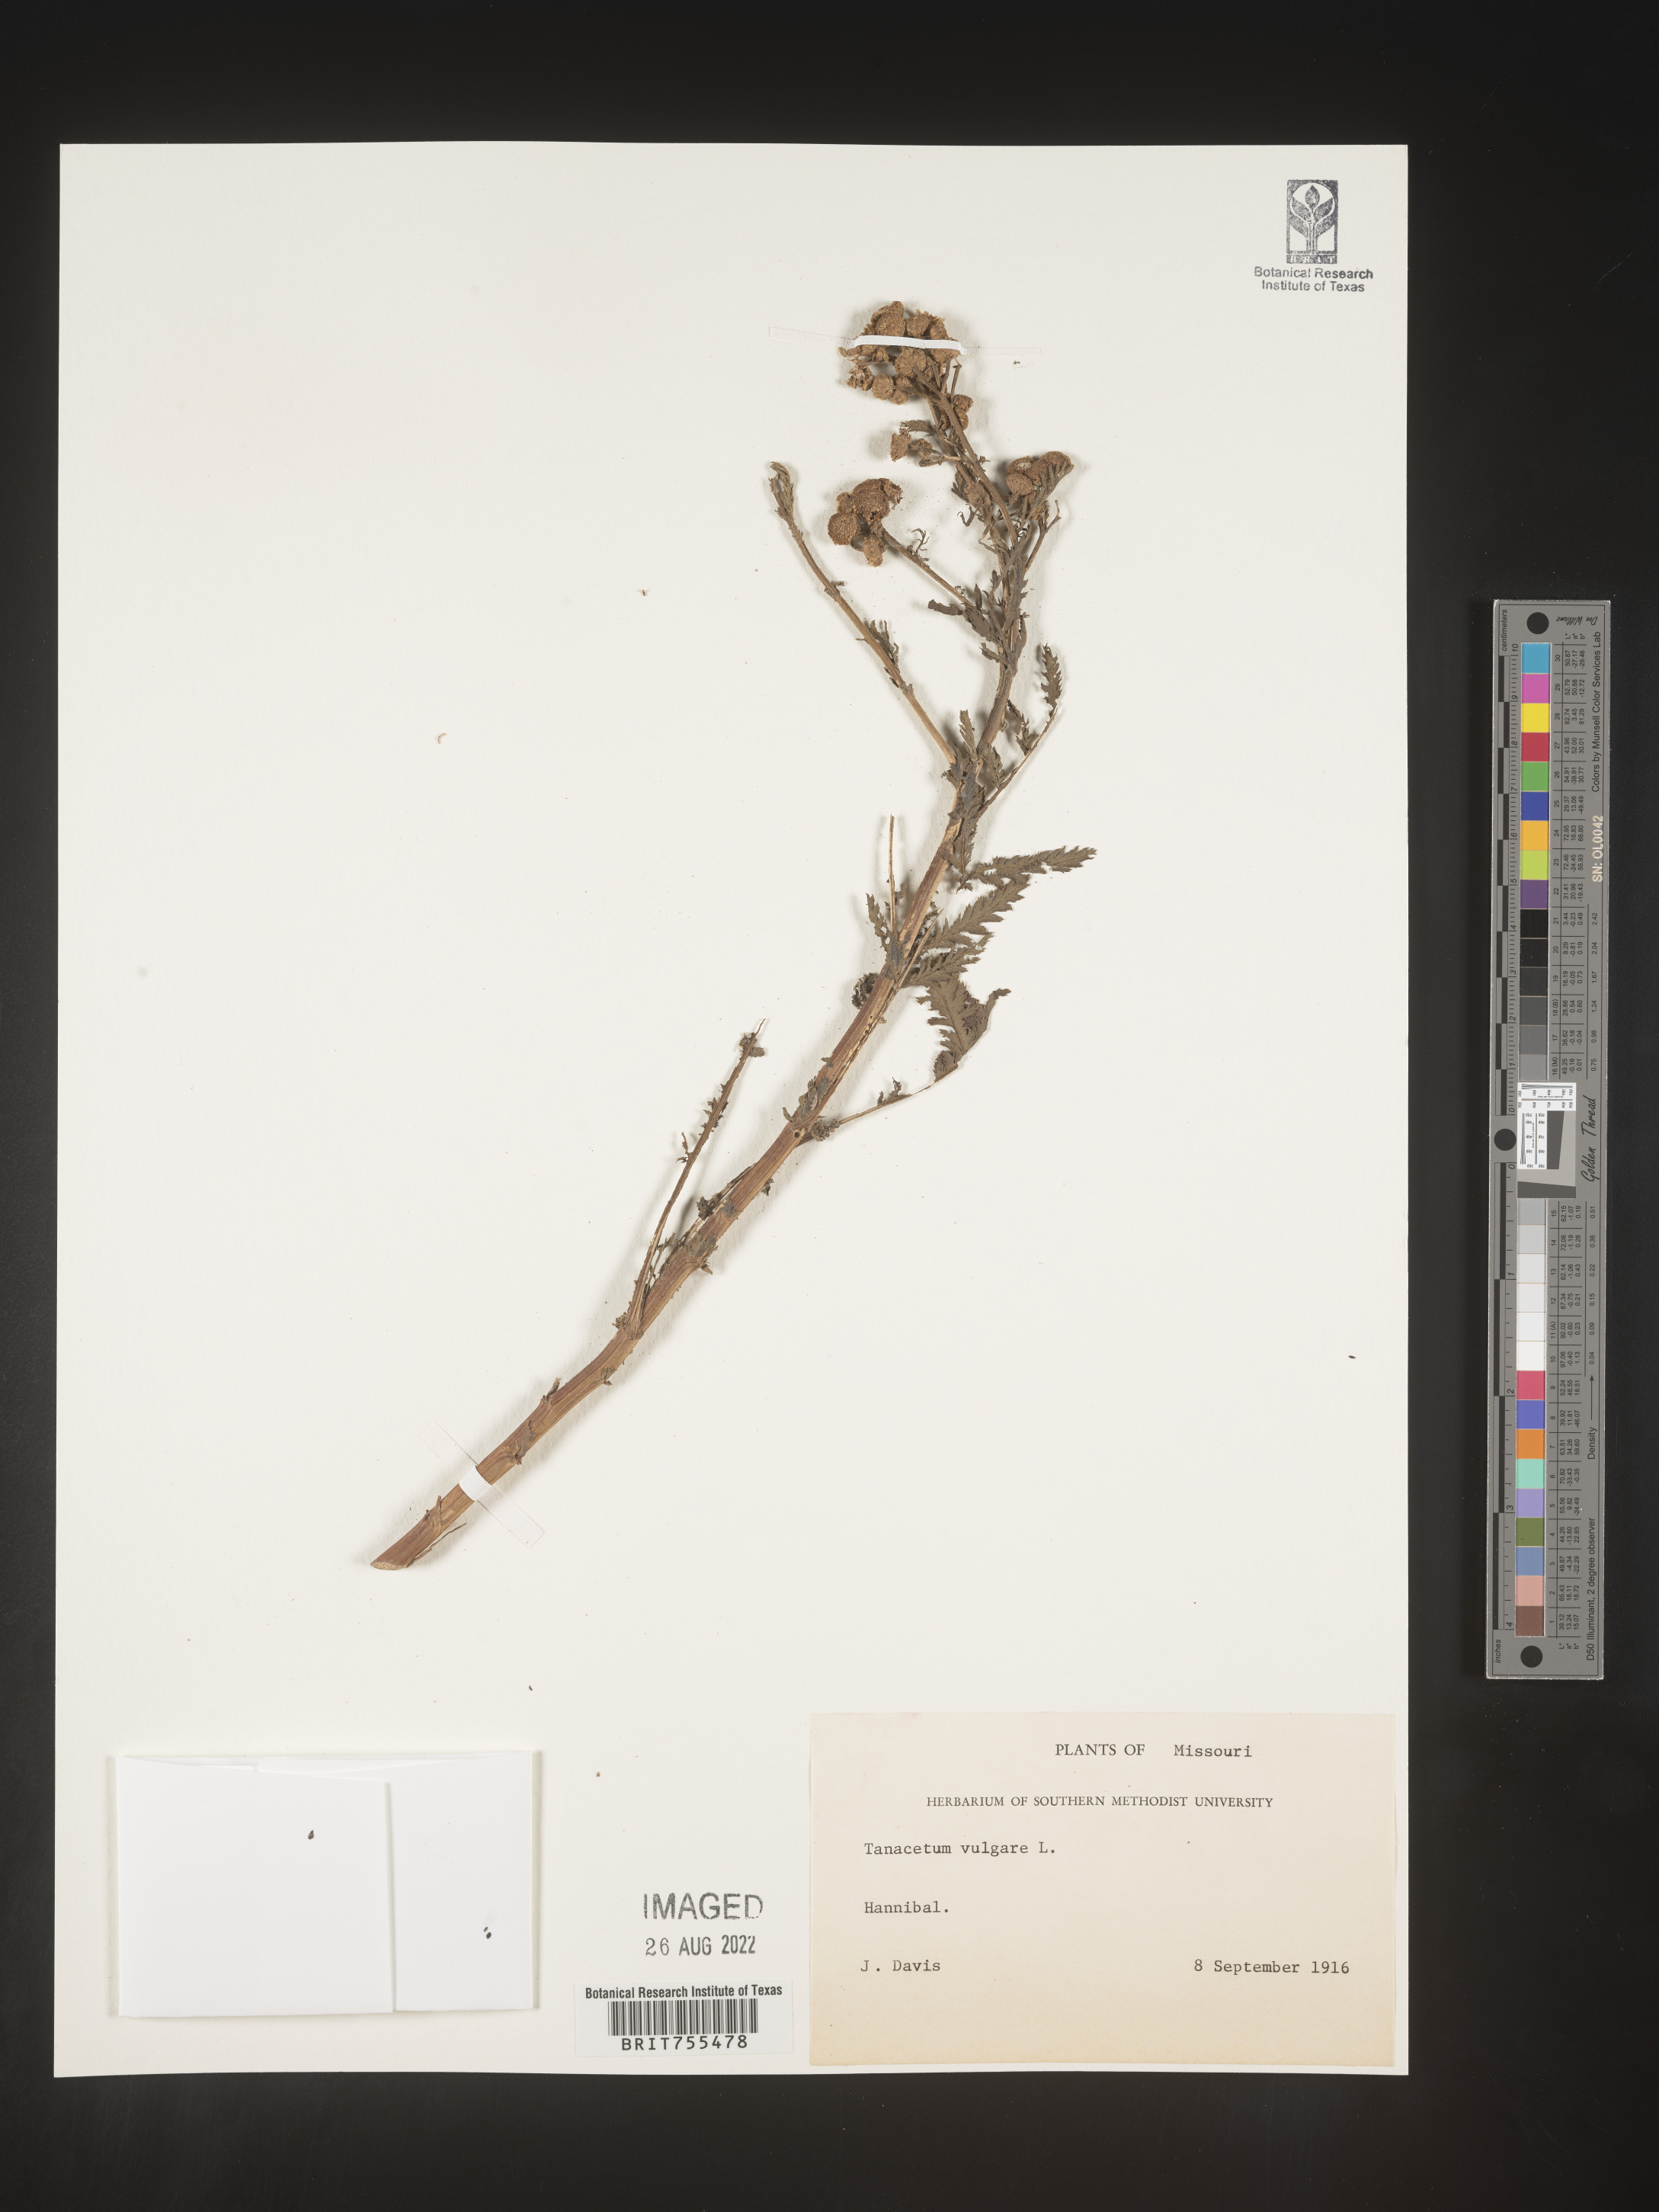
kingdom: Plantae
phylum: Tracheophyta
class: Magnoliopsida
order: Asterales
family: Asteraceae
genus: Tanacetum
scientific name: Tanacetum vulgare
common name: Common tansy
